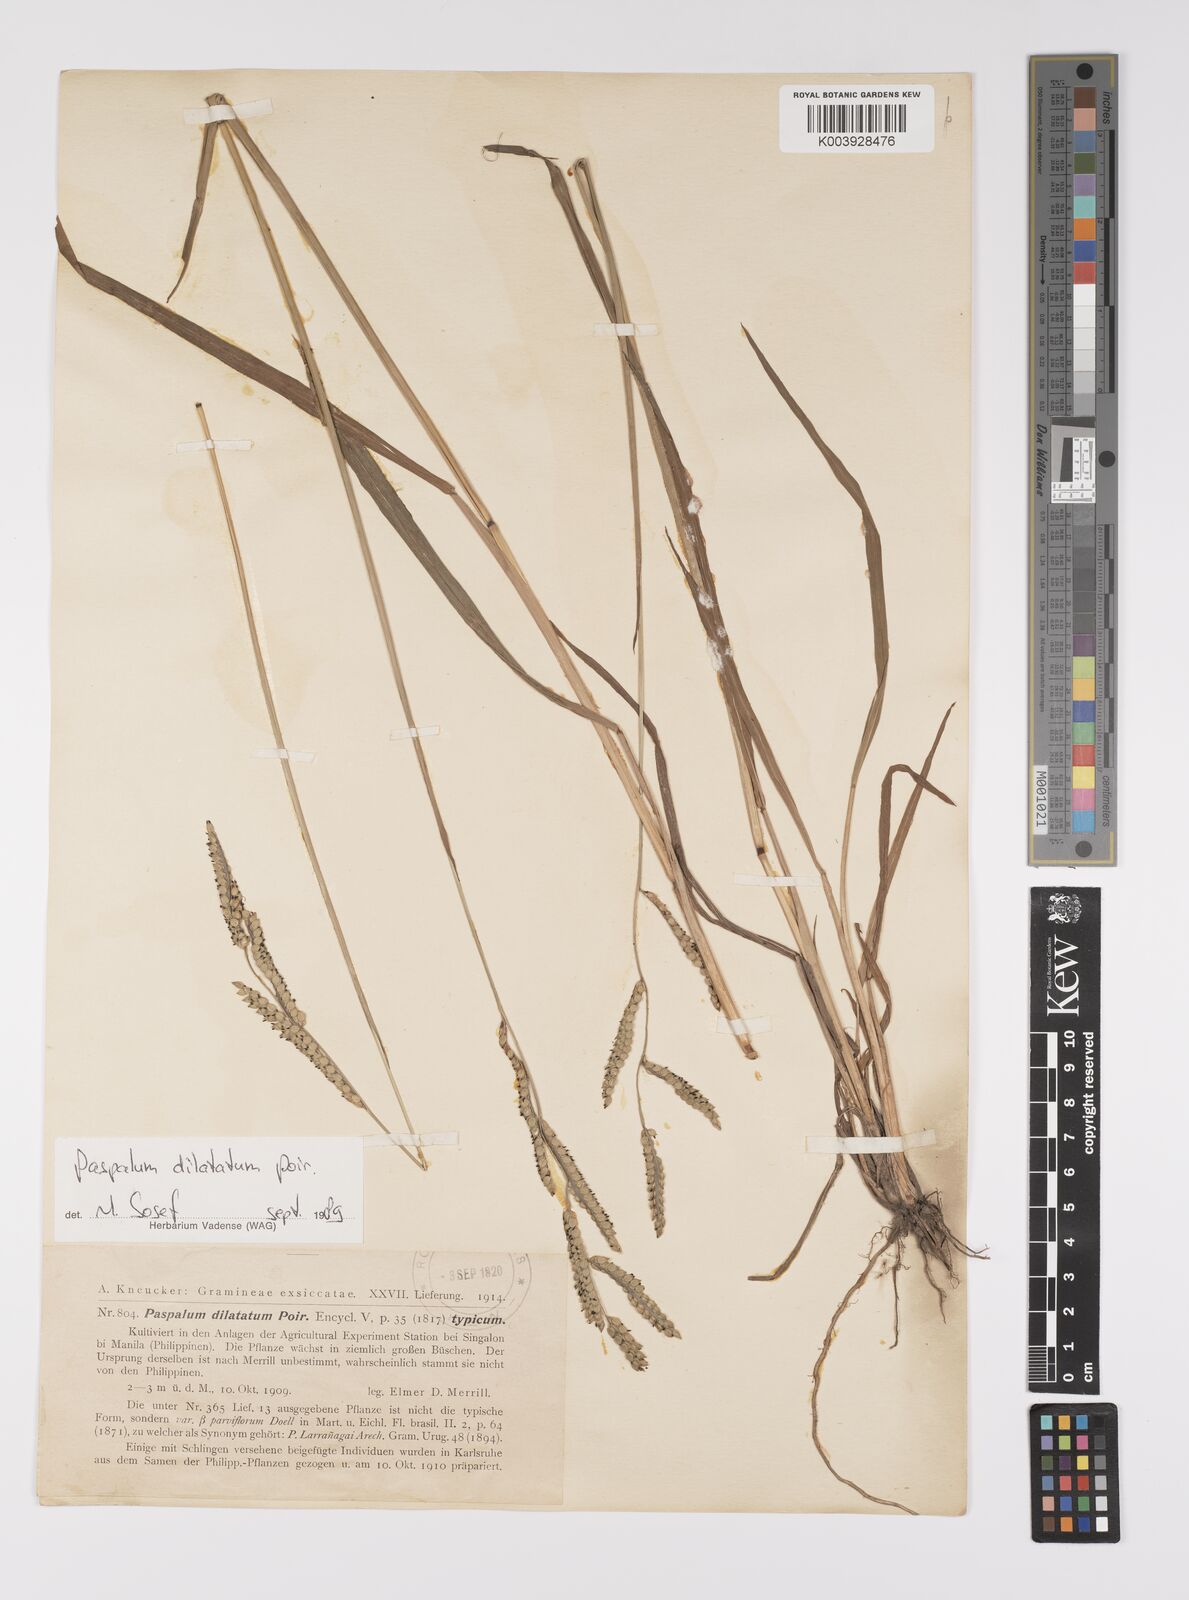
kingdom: Plantae
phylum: Tracheophyta
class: Liliopsida
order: Poales
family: Poaceae
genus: Paspalum
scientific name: Paspalum distichum
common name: Knotgrass
